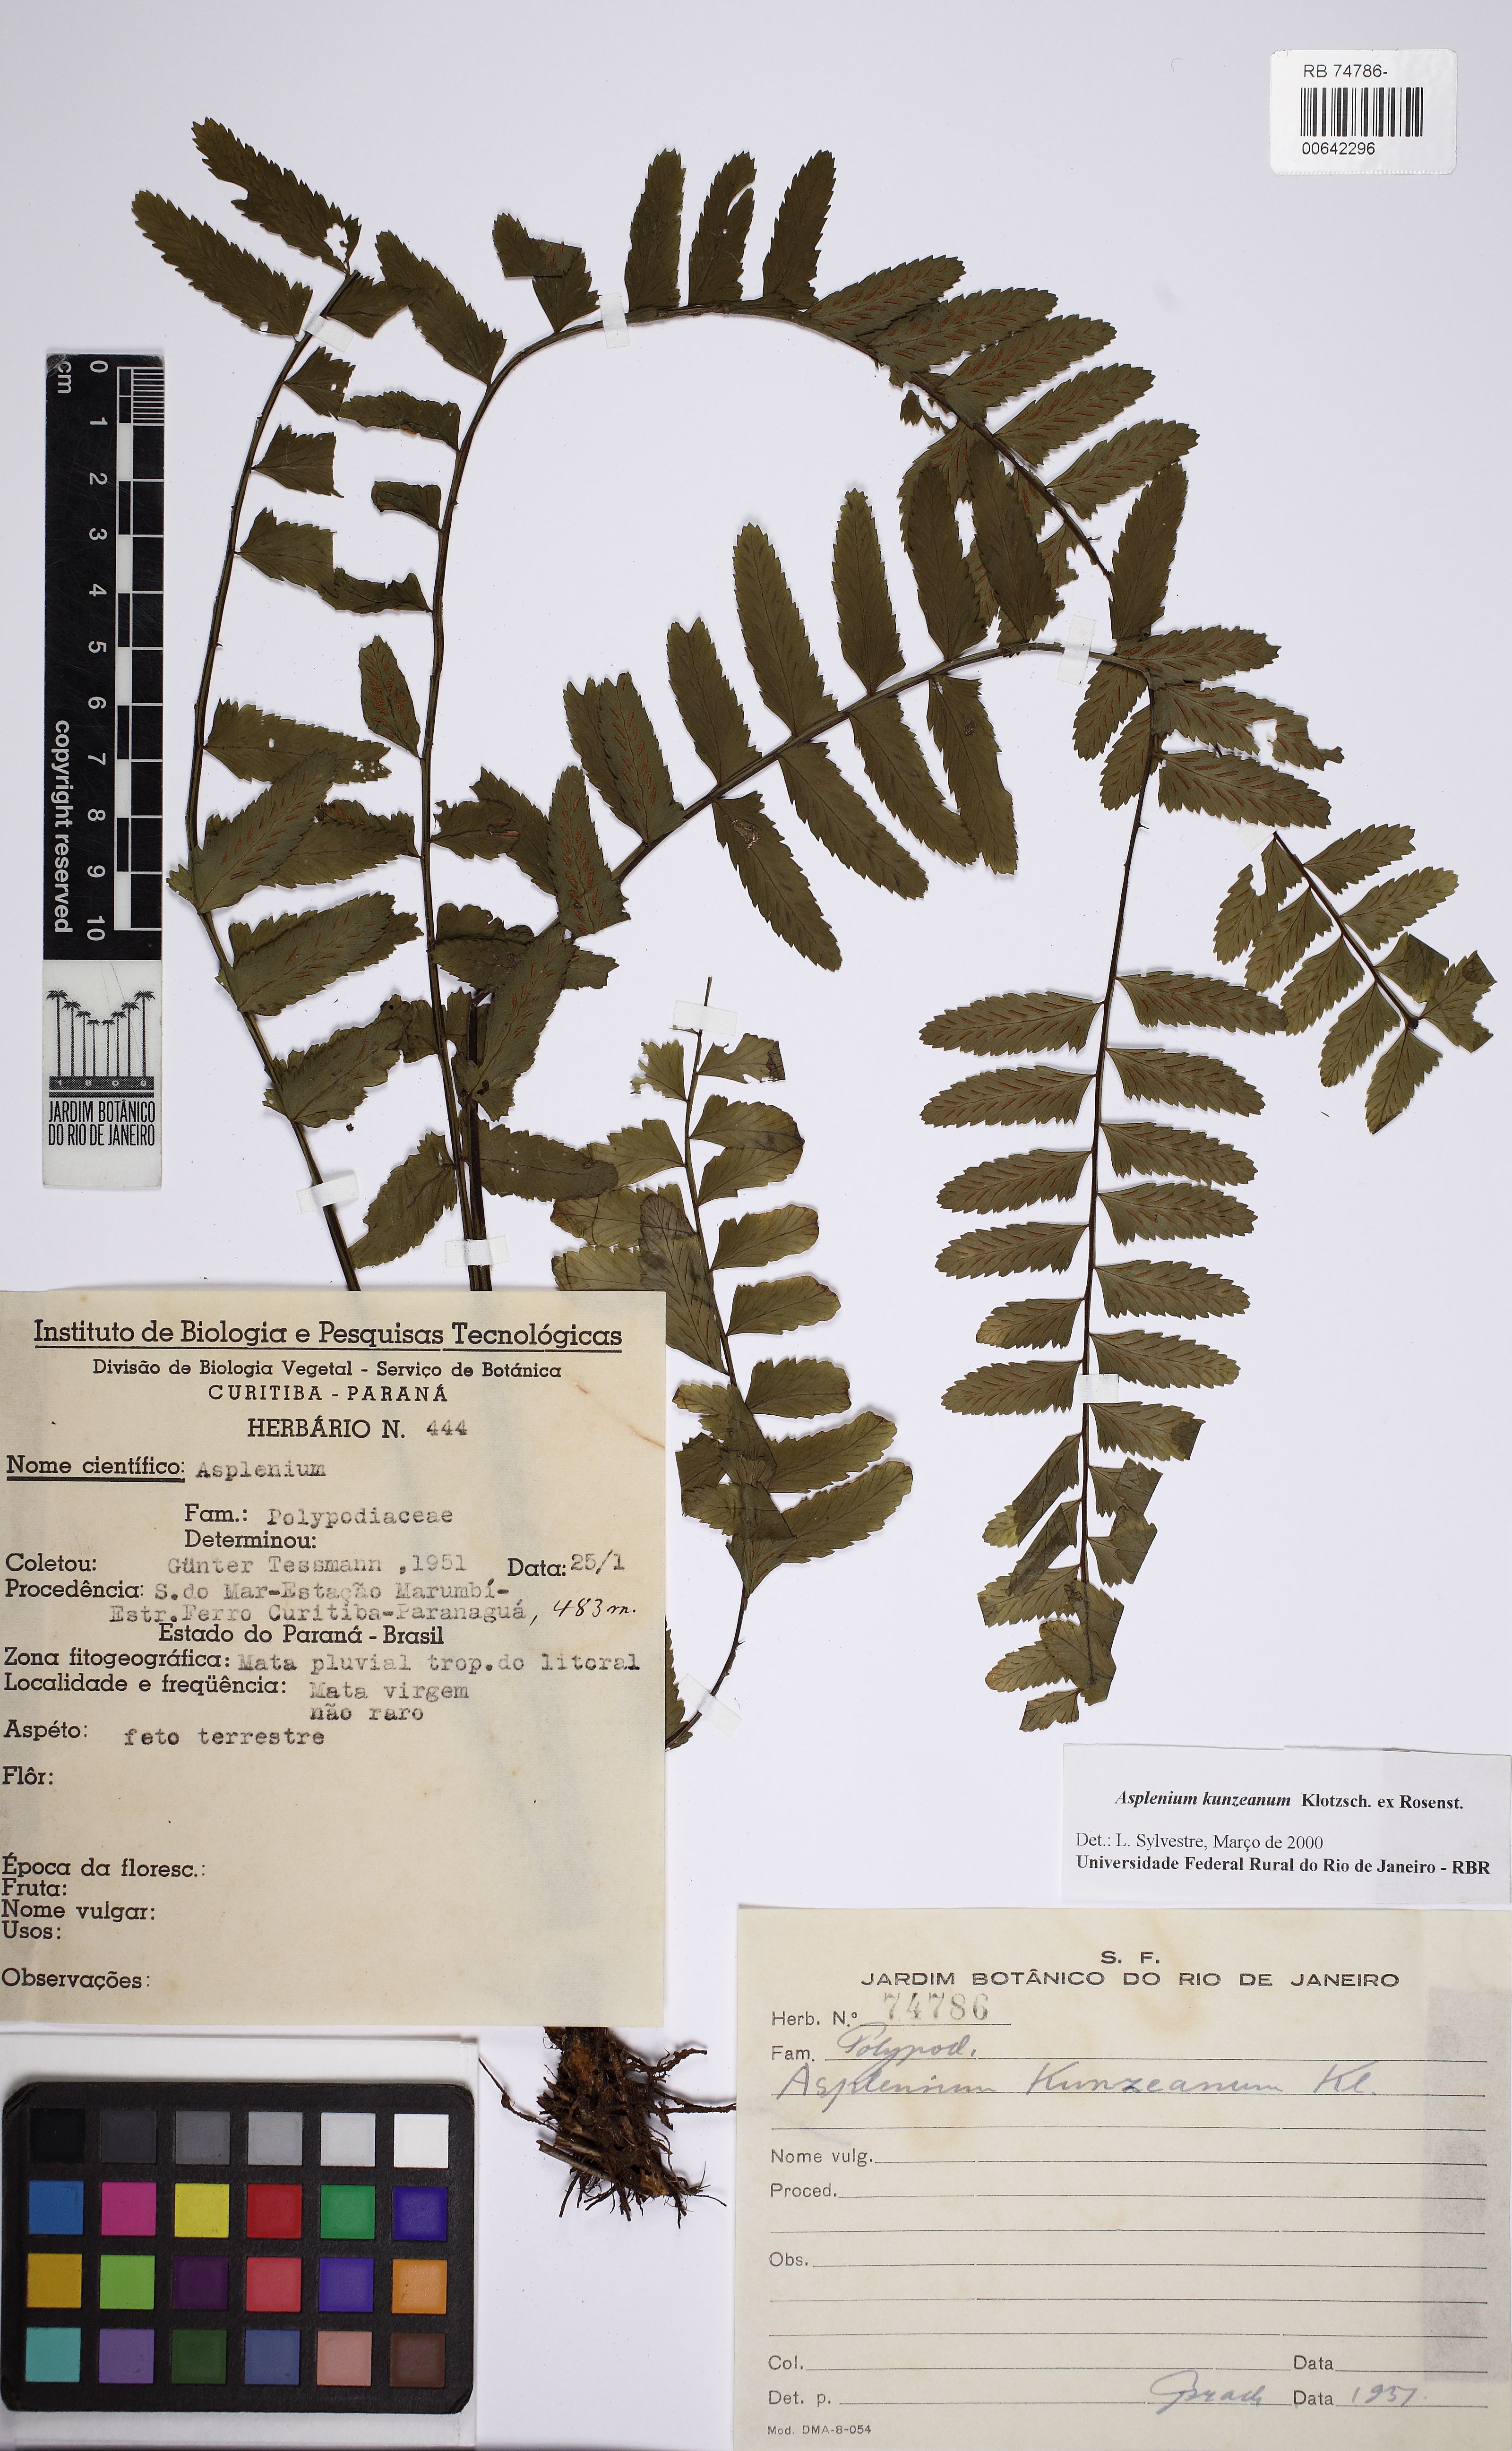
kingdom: Plantae
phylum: Tracheophyta
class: Polypodiopsida
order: Polypodiales
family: Aspleniaceae
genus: Asplenium
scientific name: Asplenium kunzeanum
